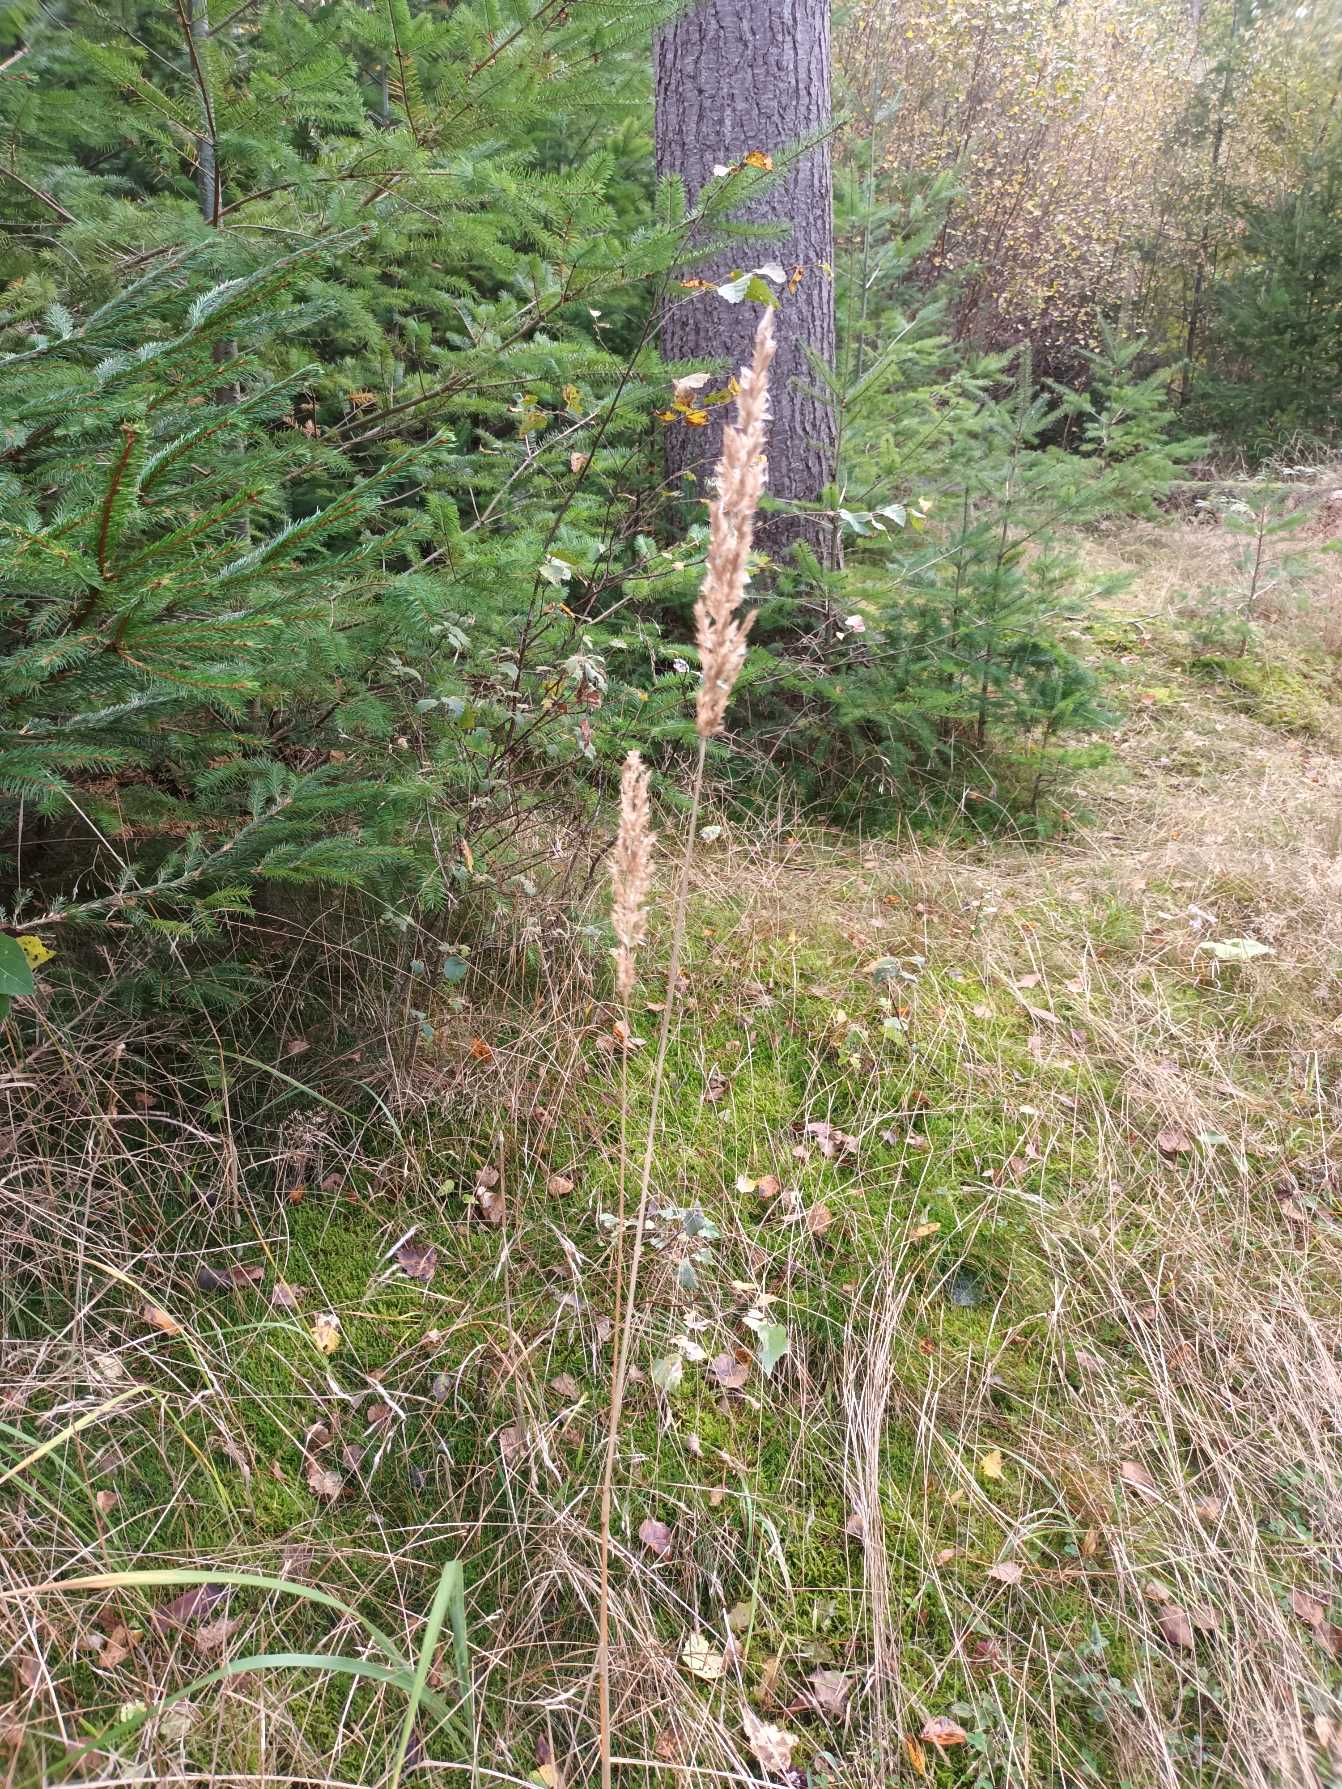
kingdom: Plantae
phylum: Tracheophyta
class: Liliopsida
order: Poales
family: Poaceae
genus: Calamagrostis
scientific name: Calamagrostis epigejos
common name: Bjerg-rørhvene
